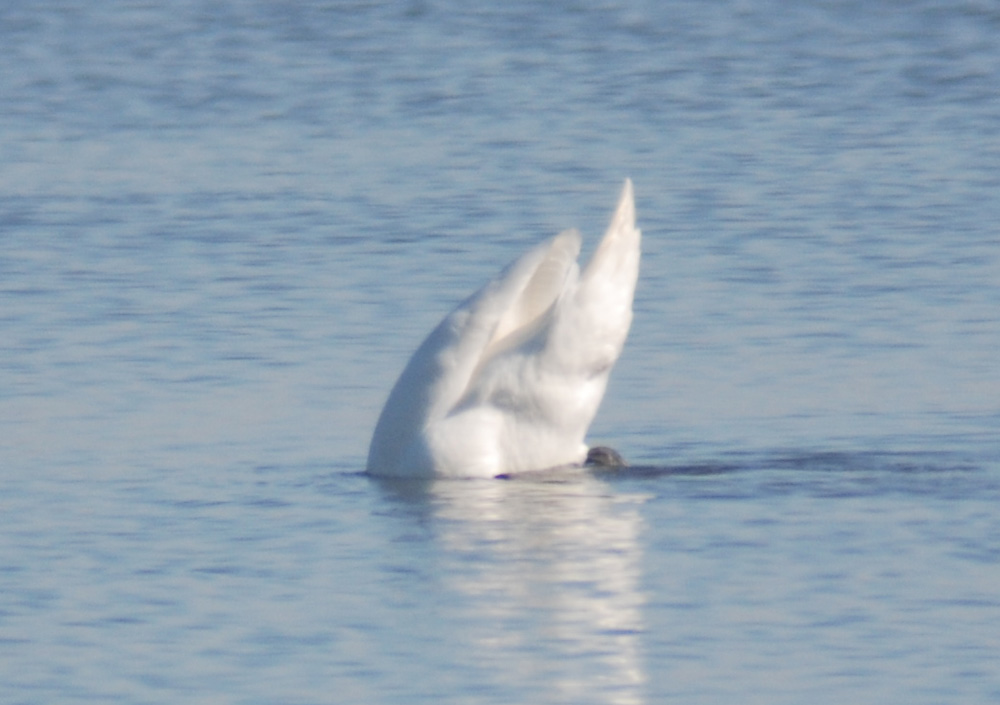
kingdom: Animalia
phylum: Chordata
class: Aves
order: Anseriformes
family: Anatidae
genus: Cygnus
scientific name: Cygnus olor
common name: Mute swan
